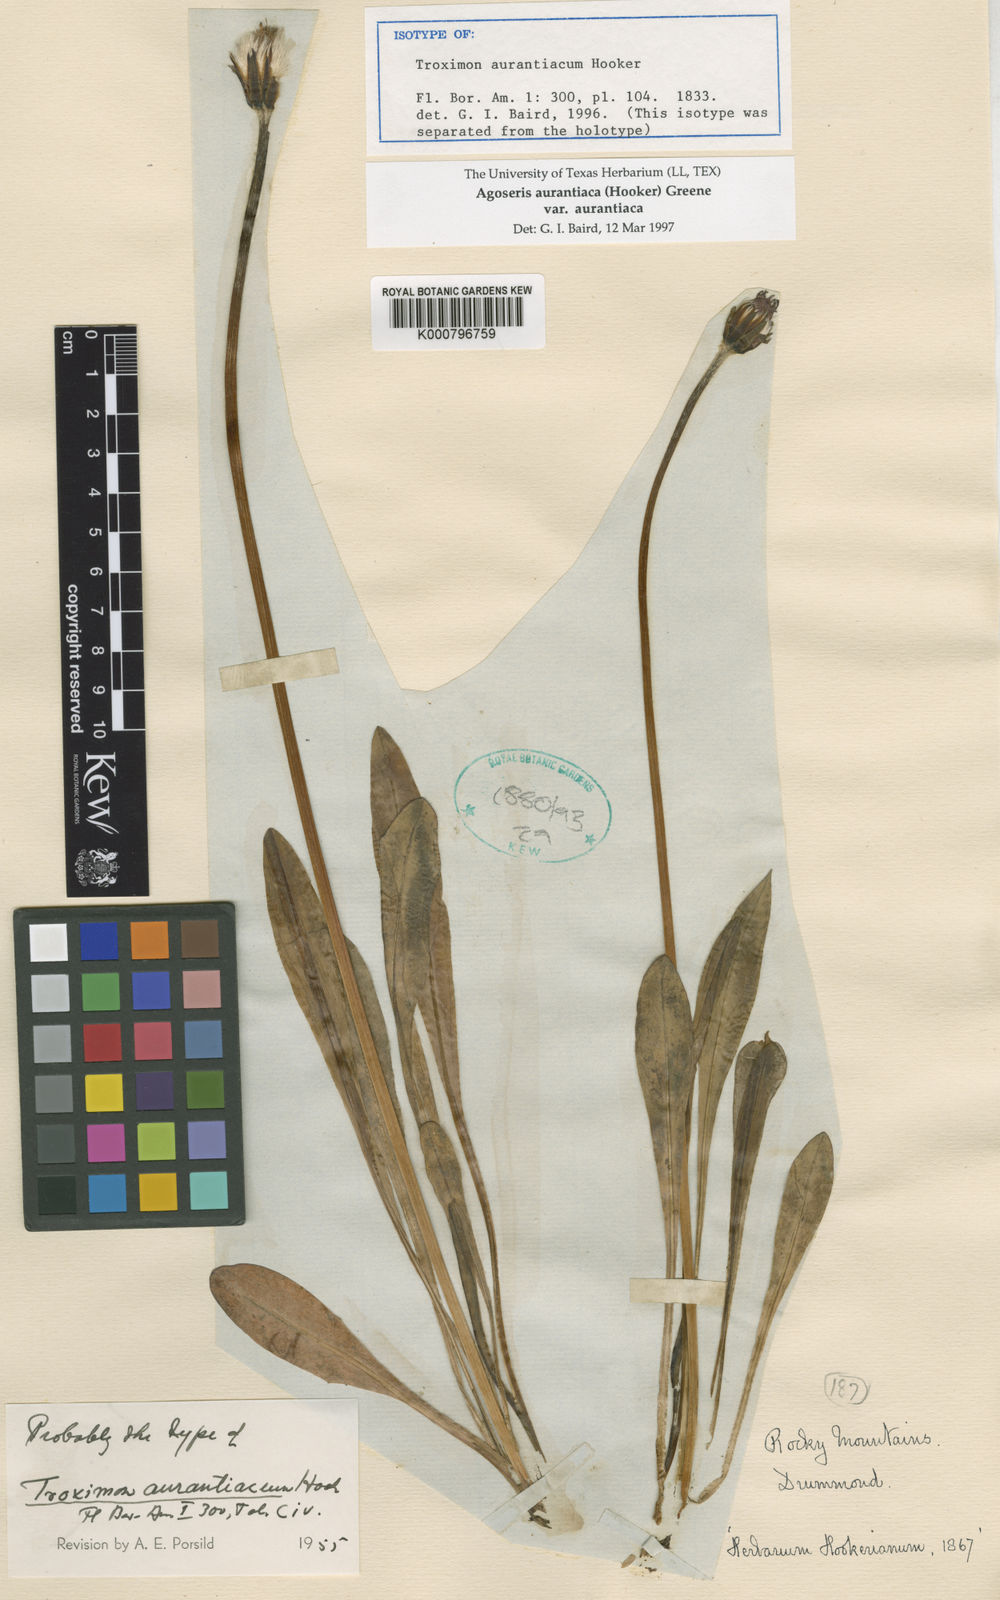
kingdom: Plantae
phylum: Tracheophyta
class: Magnoliopsida
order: Asterales
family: Asteraceae
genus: Agoseris
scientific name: Agoseris aurantiaca
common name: Mountain agoseris
